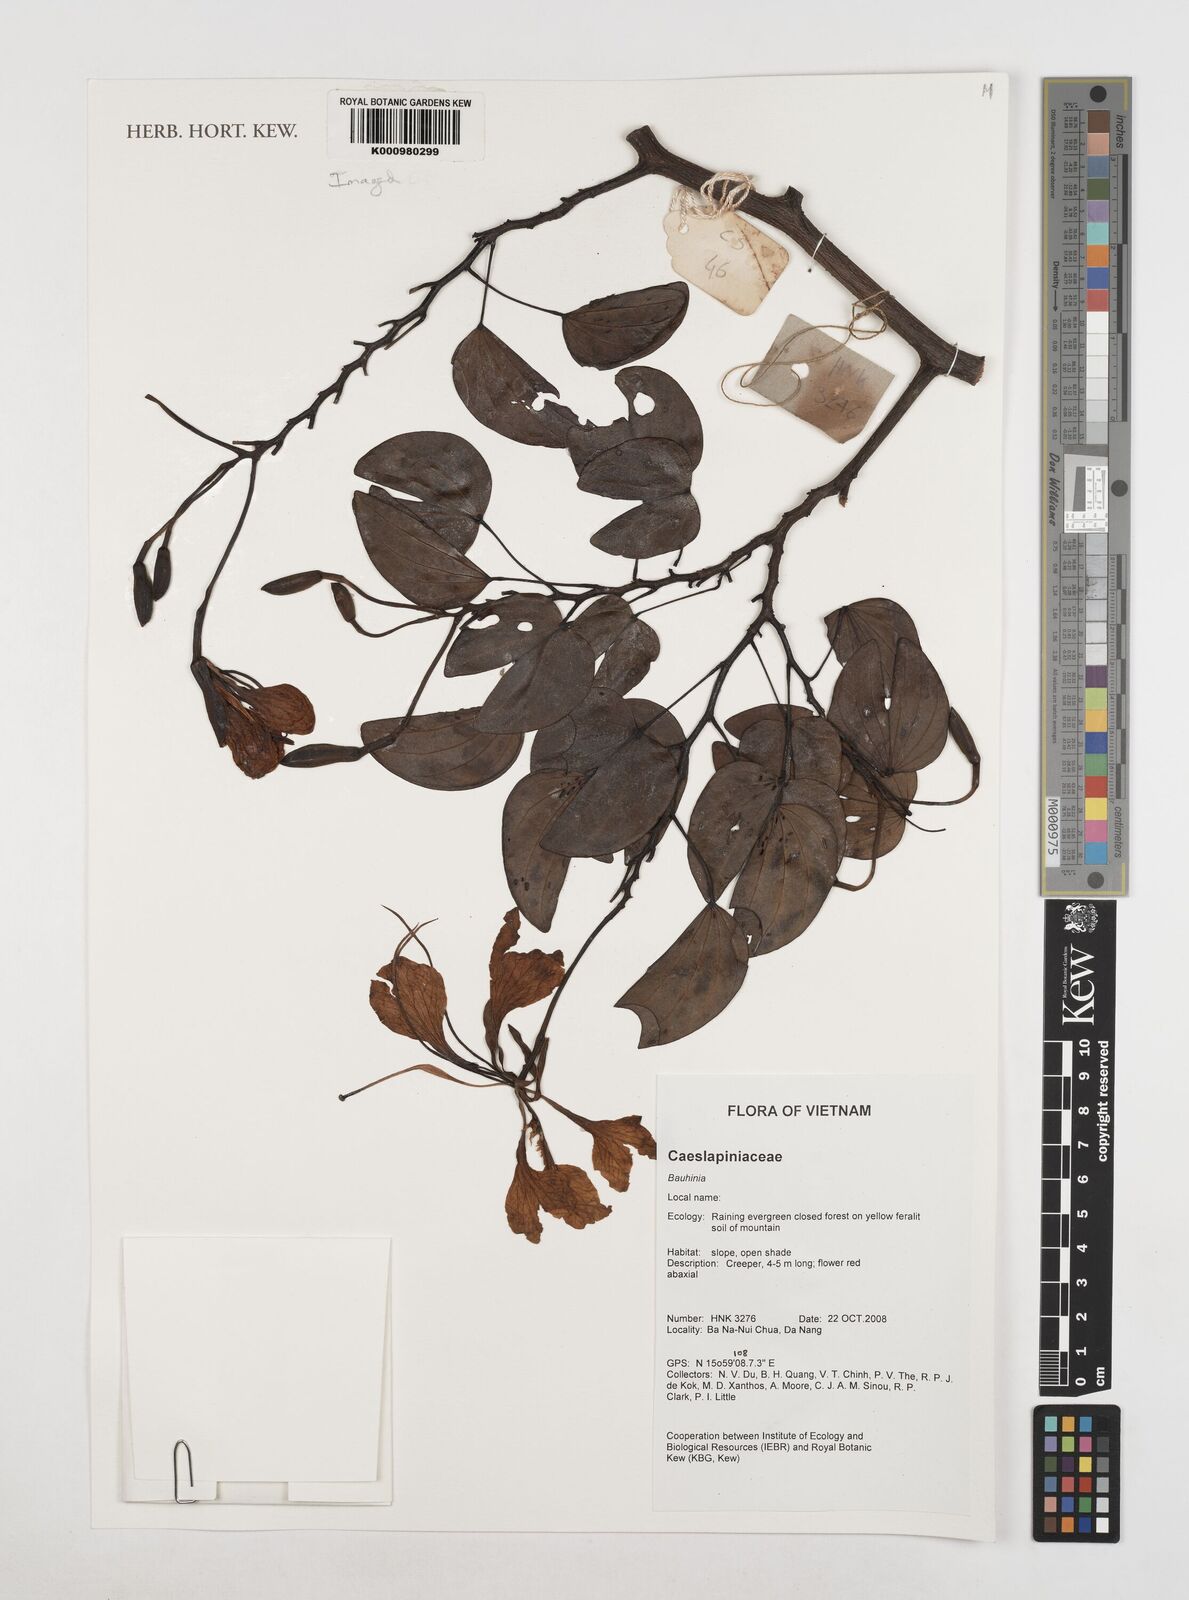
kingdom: Plantae
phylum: Tracheophyta
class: Magnoliopsida
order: Fabales
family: Fabaceae
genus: Phanera
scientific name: Phanera
